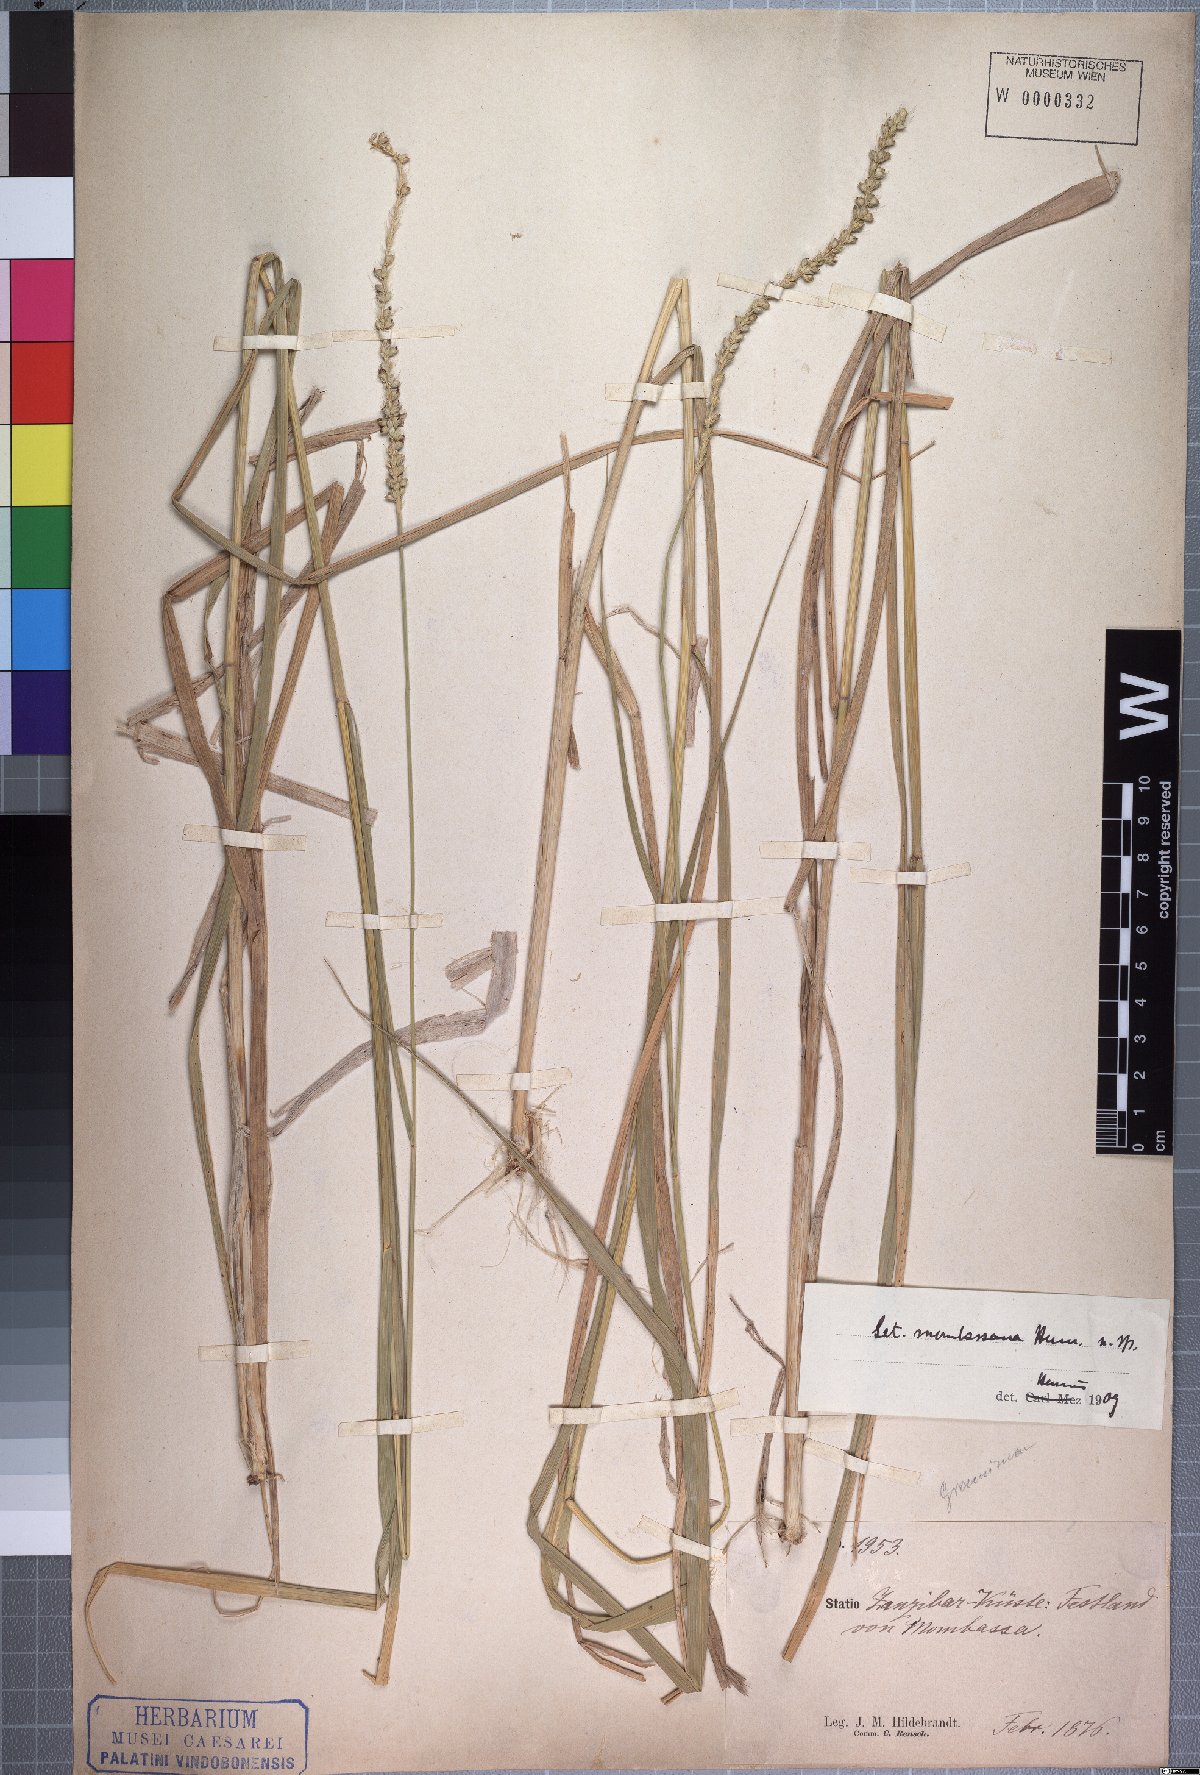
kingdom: Plantae
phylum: Tracheophyta
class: Liliopsida
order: Poales
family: Poaceae
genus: Setaria
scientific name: Setaria incrassata
